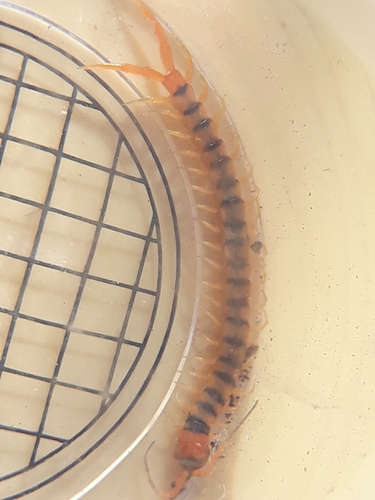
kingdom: Animalia
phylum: Arthropoda
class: Chilopoda
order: Scolopendromorpha
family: Scolopendridae
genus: Scolopendra
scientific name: Scolopendra cingulata
